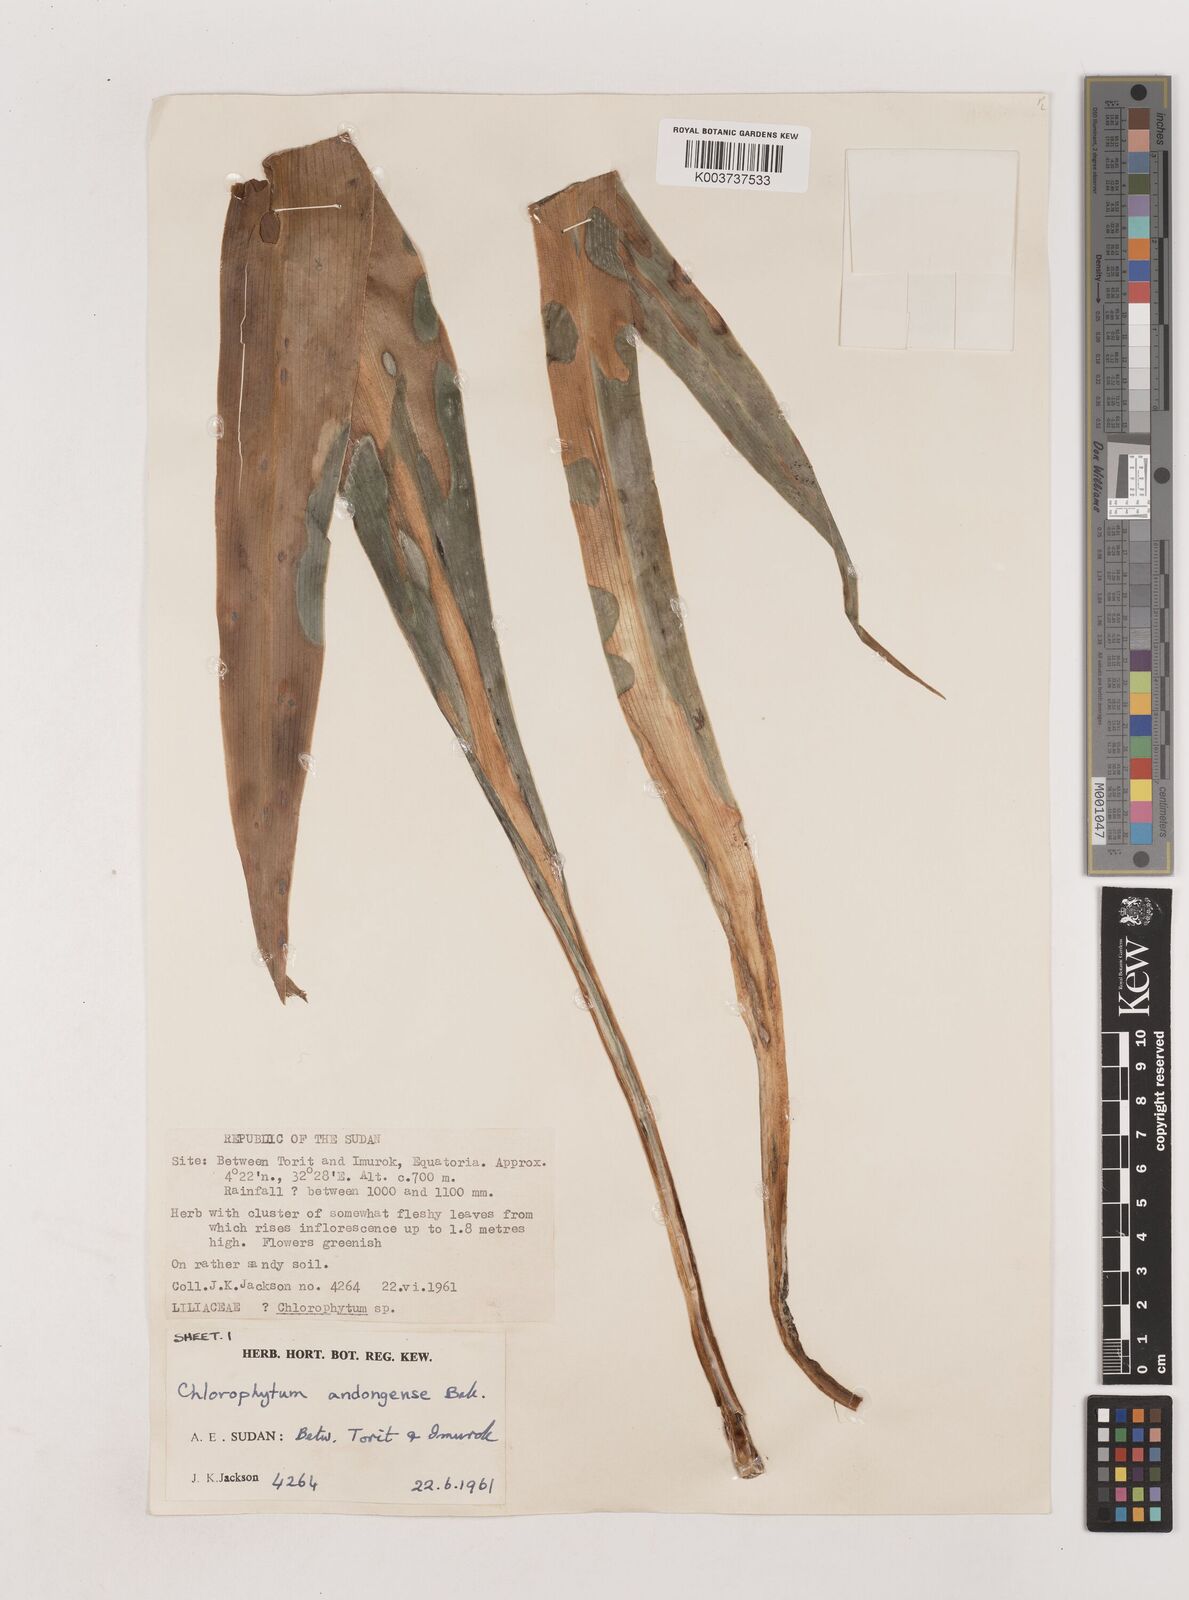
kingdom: Plantae
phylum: Tracheophyta
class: Liliopsida
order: Asparagales
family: Asparagaceae
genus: Chlorophytum
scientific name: Chlorophytum andongense
